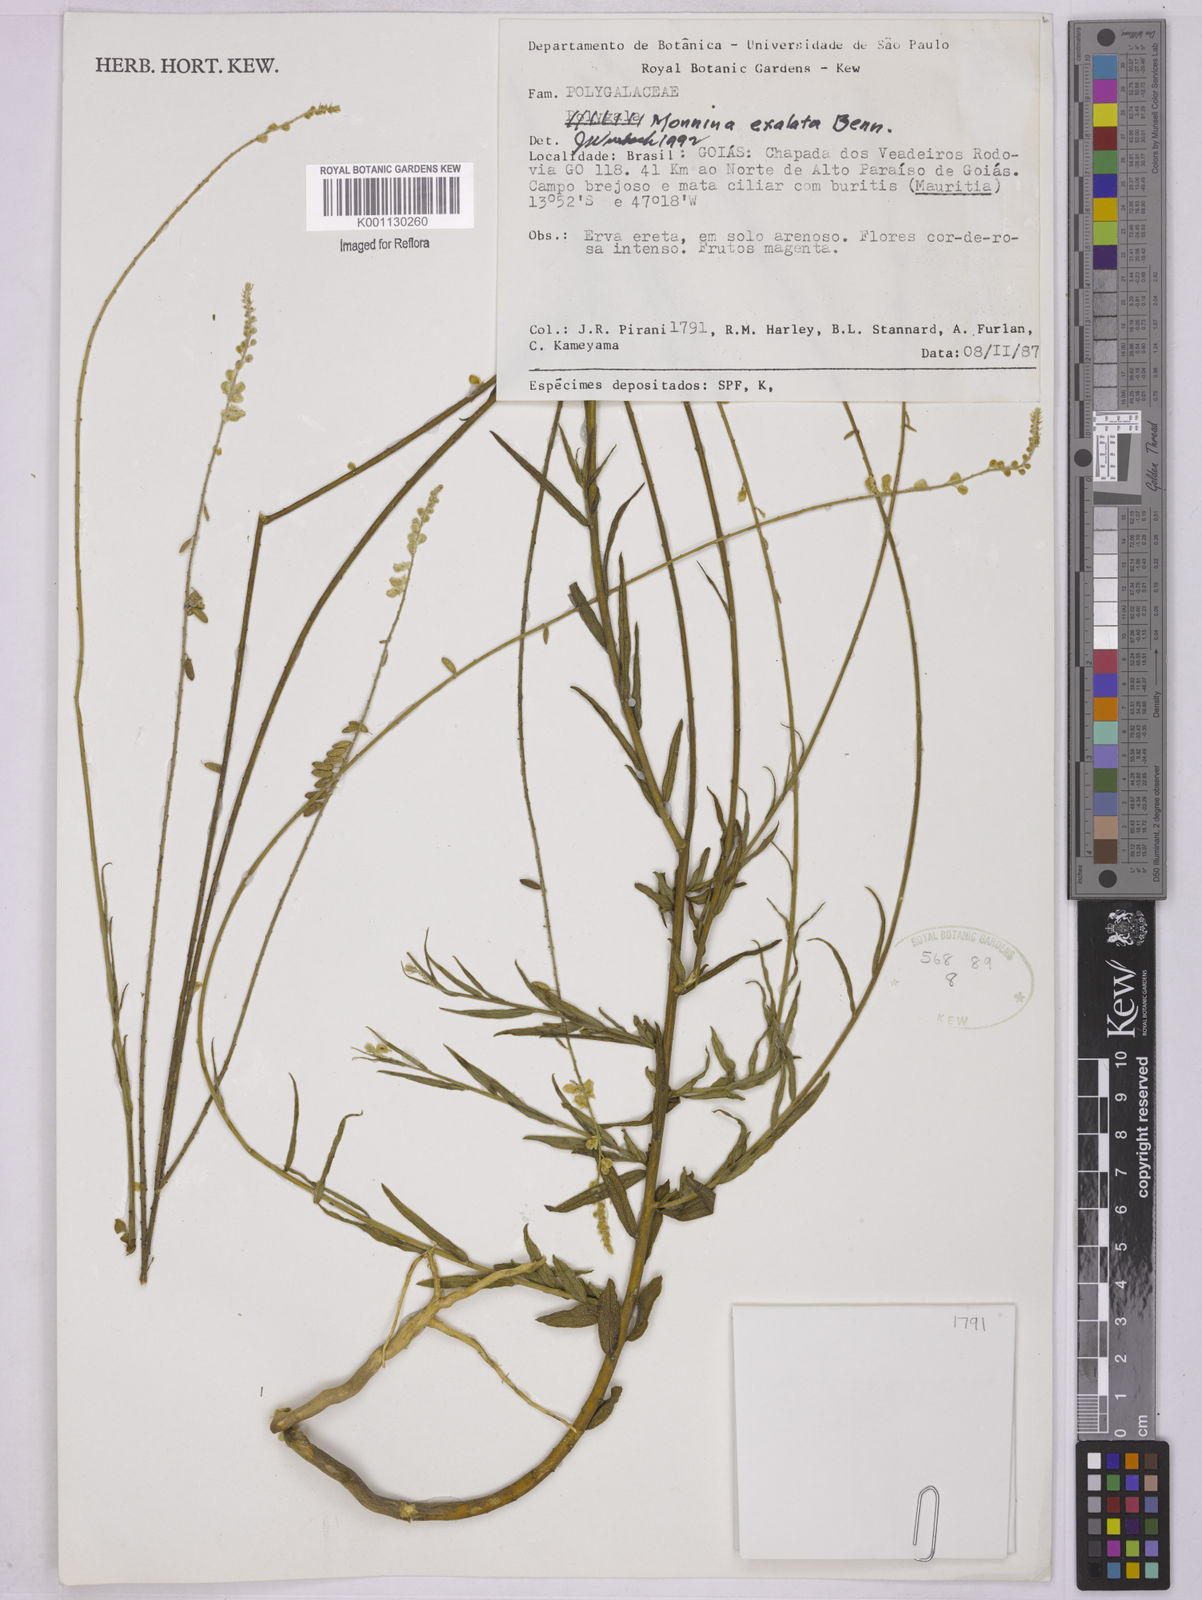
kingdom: Plantae
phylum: Tracheophyta
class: Magnoliopsida
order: Fabales
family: Polygalaceae
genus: Monnina
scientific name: Monnina exalata
